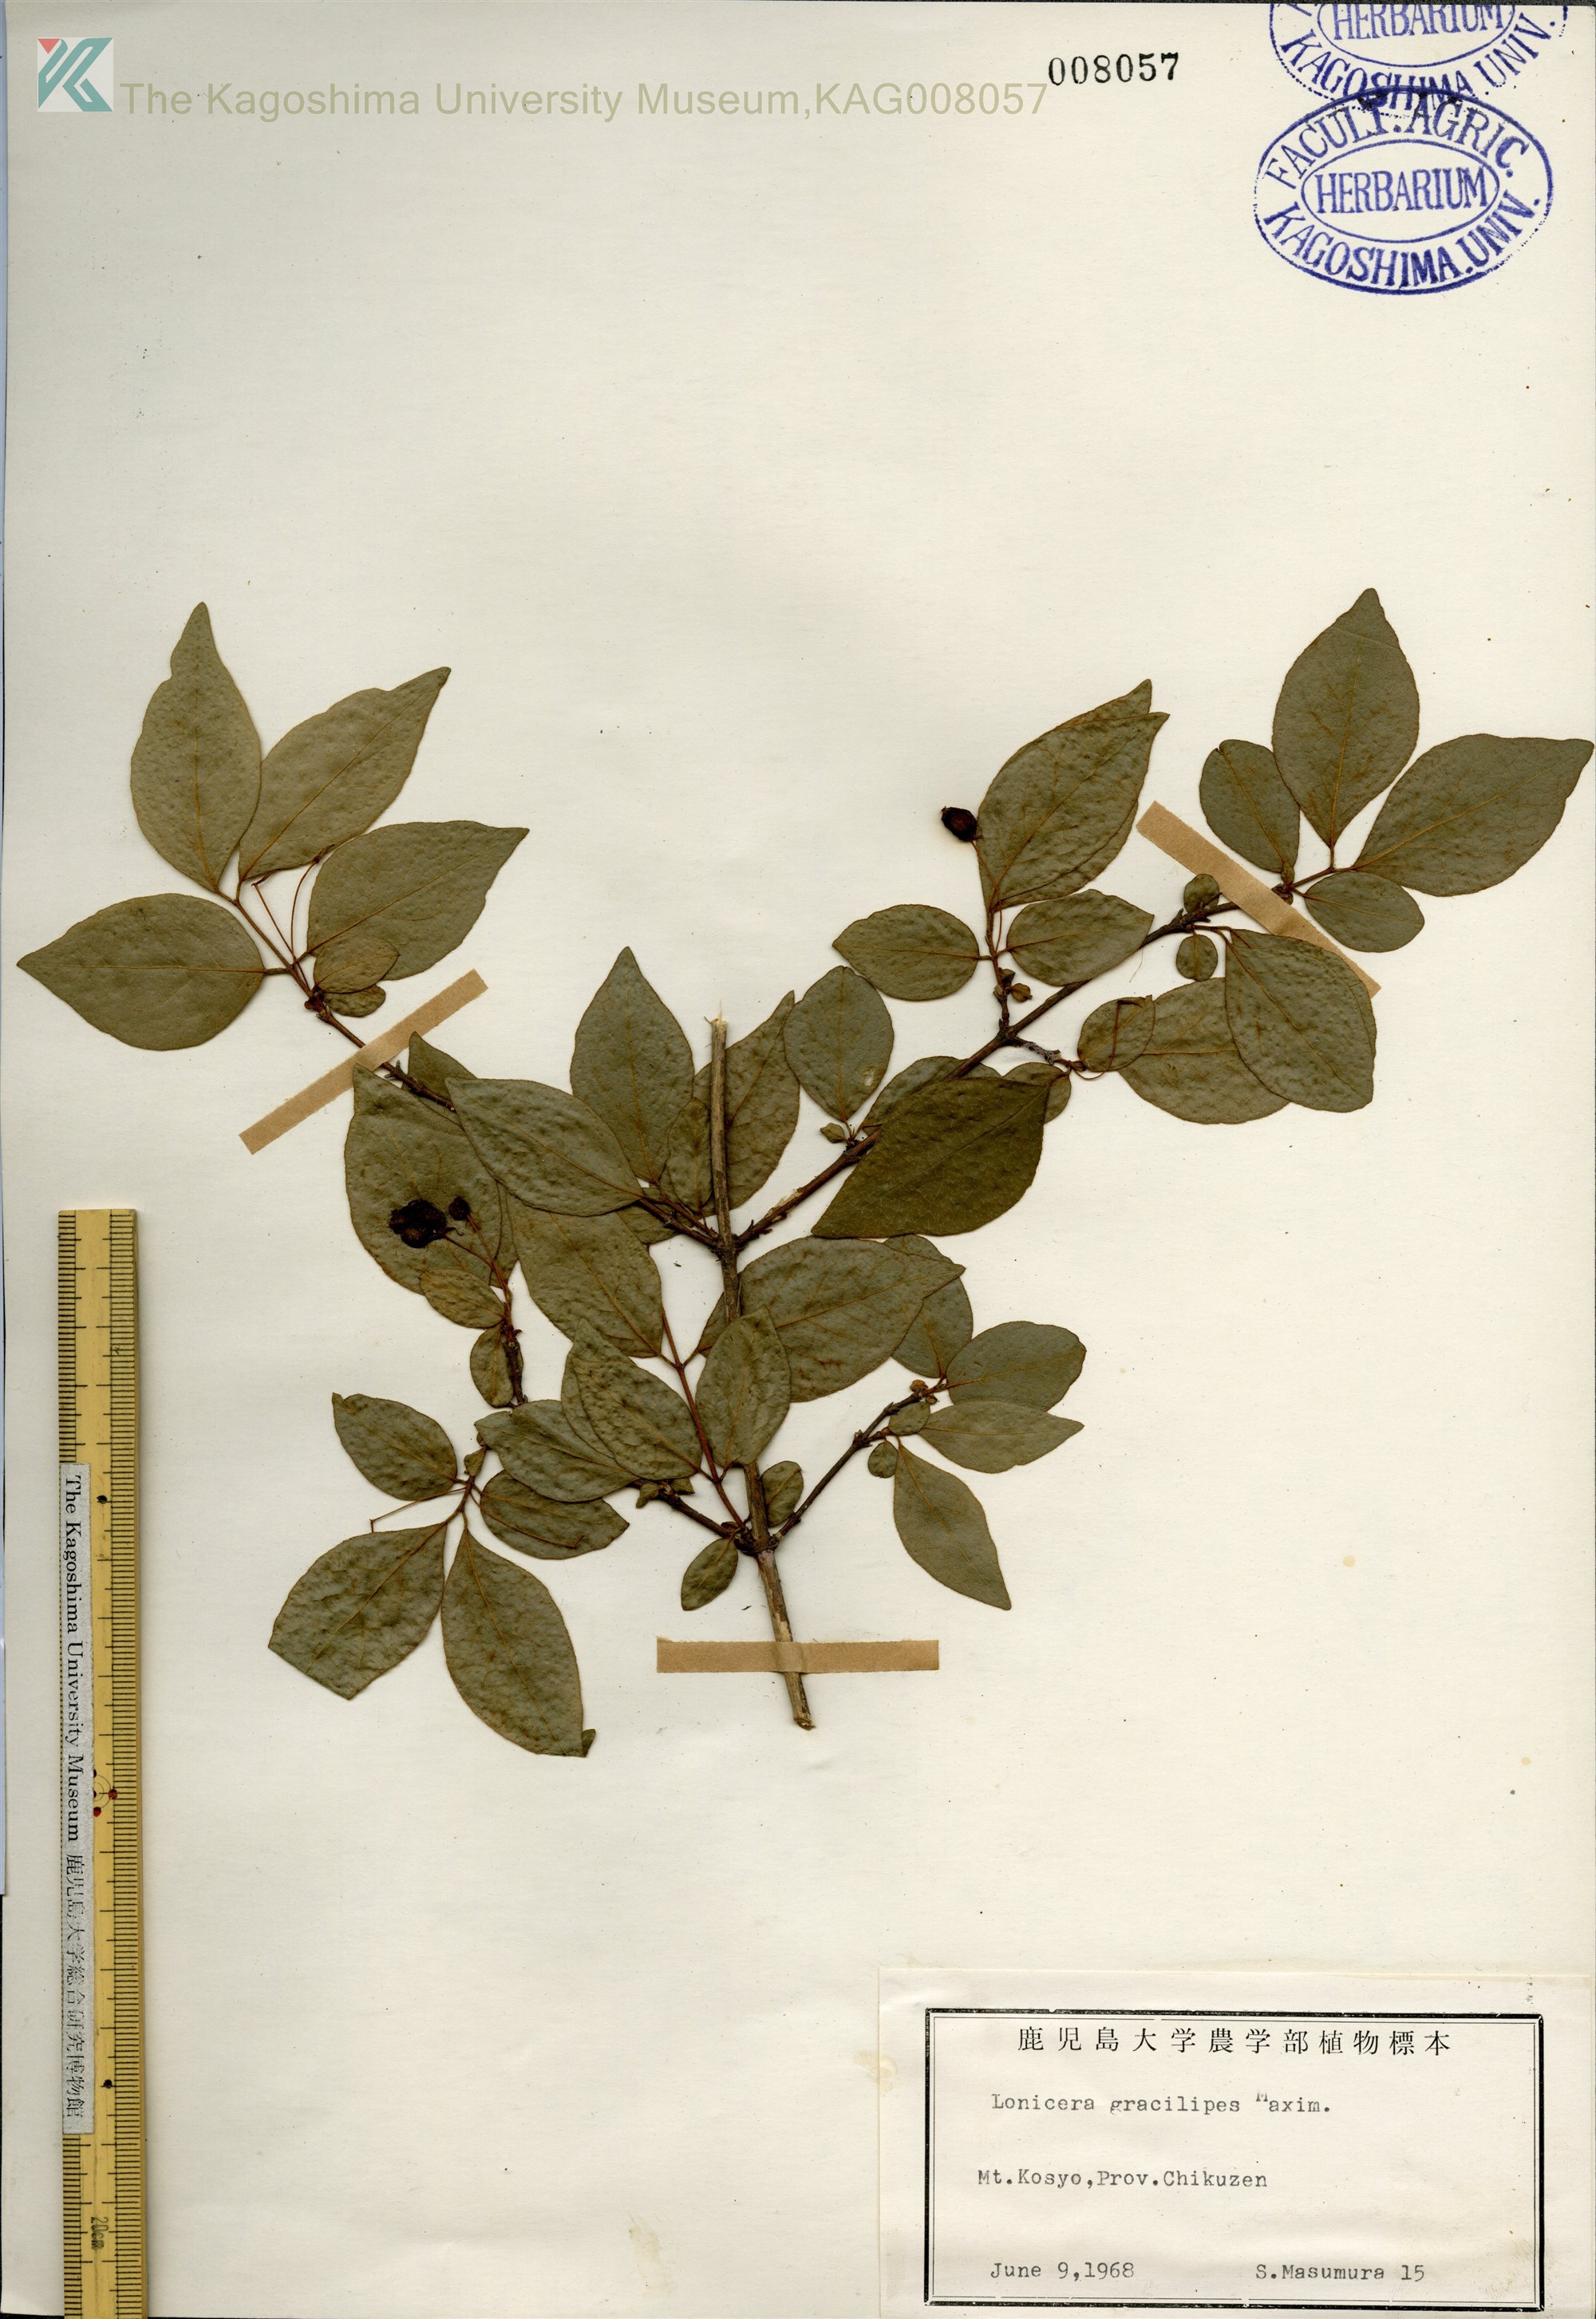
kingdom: Plantae
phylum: Tracheophyta
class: Magnoliopsida
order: Dipsacales
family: Caprifoliaceae
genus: Lonicera
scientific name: Lonicera gracilipes
